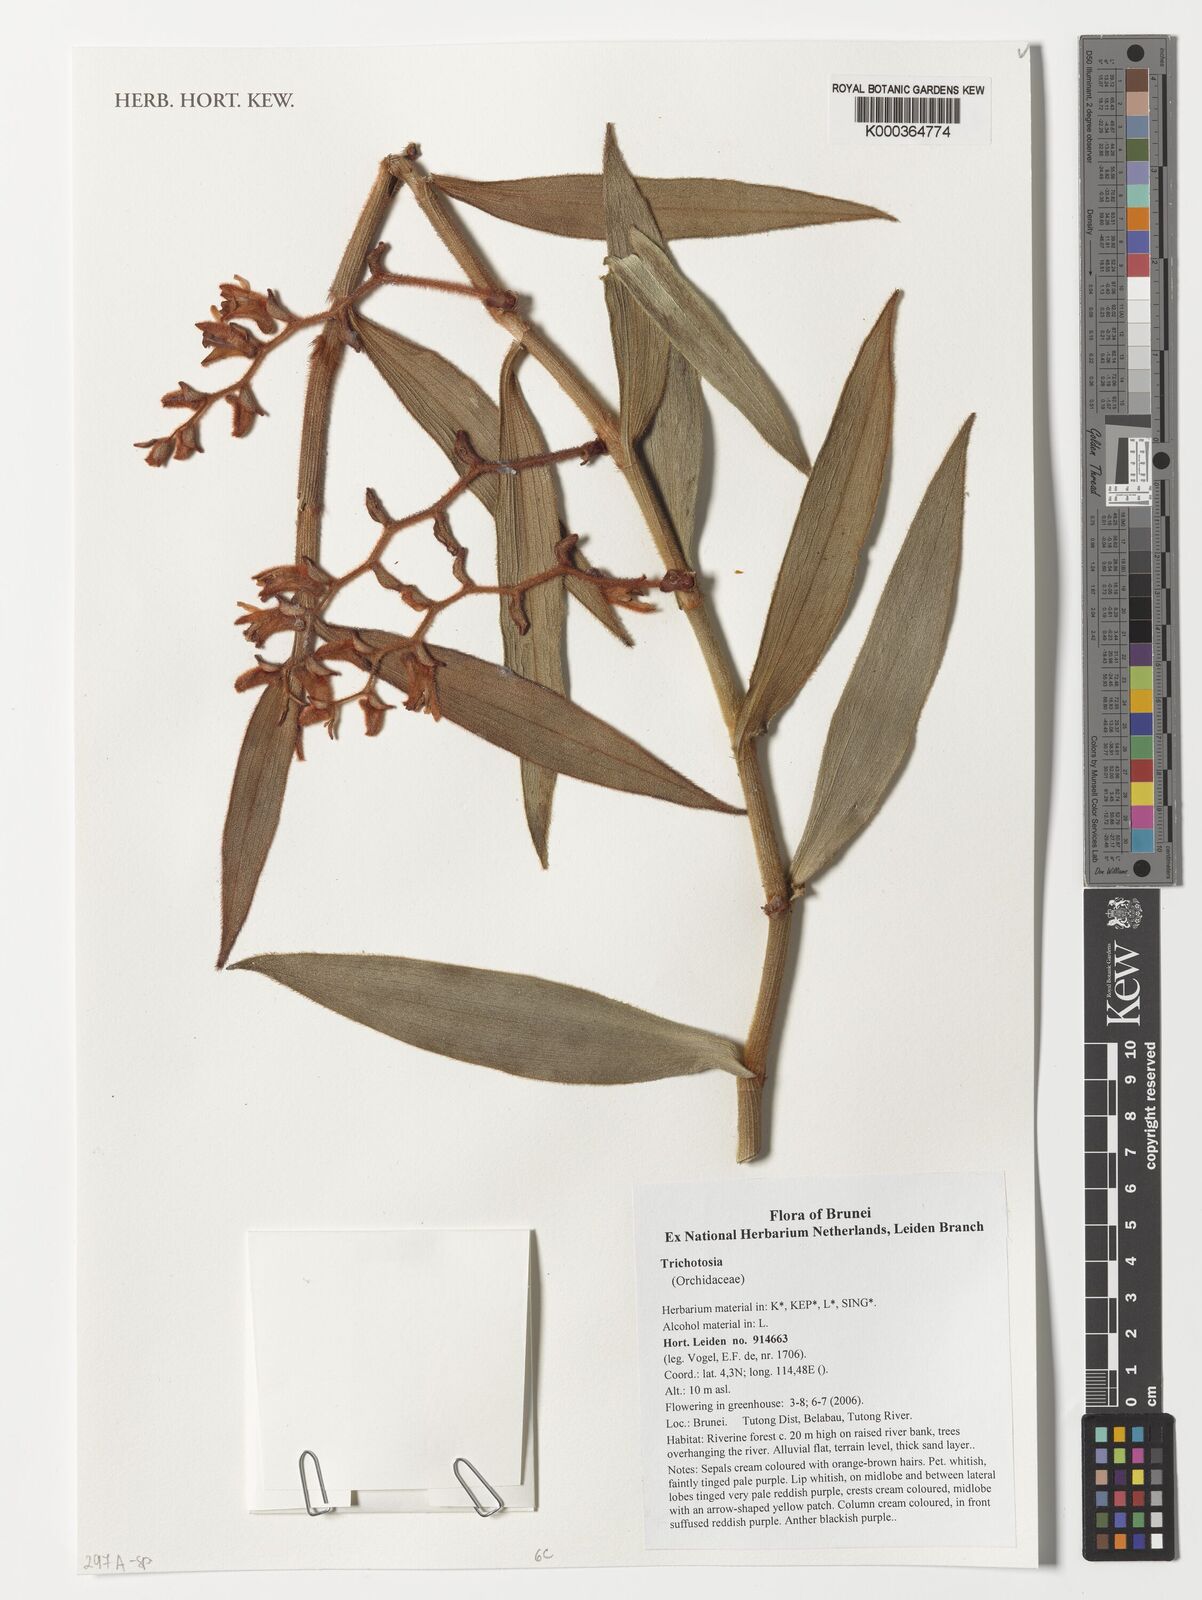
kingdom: Plantae
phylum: Tracheophyta
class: Liliopsida
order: Asparagales
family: Orchidaceae
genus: Trichotosia
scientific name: Trichotosia
